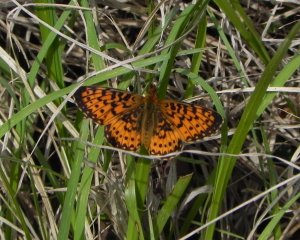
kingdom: Animalia
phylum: Arthropoda
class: Insecta
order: Lepidoptera
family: Nymphalidae
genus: Boloria
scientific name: Boloria selene
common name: Silver-bordered Fritillary
